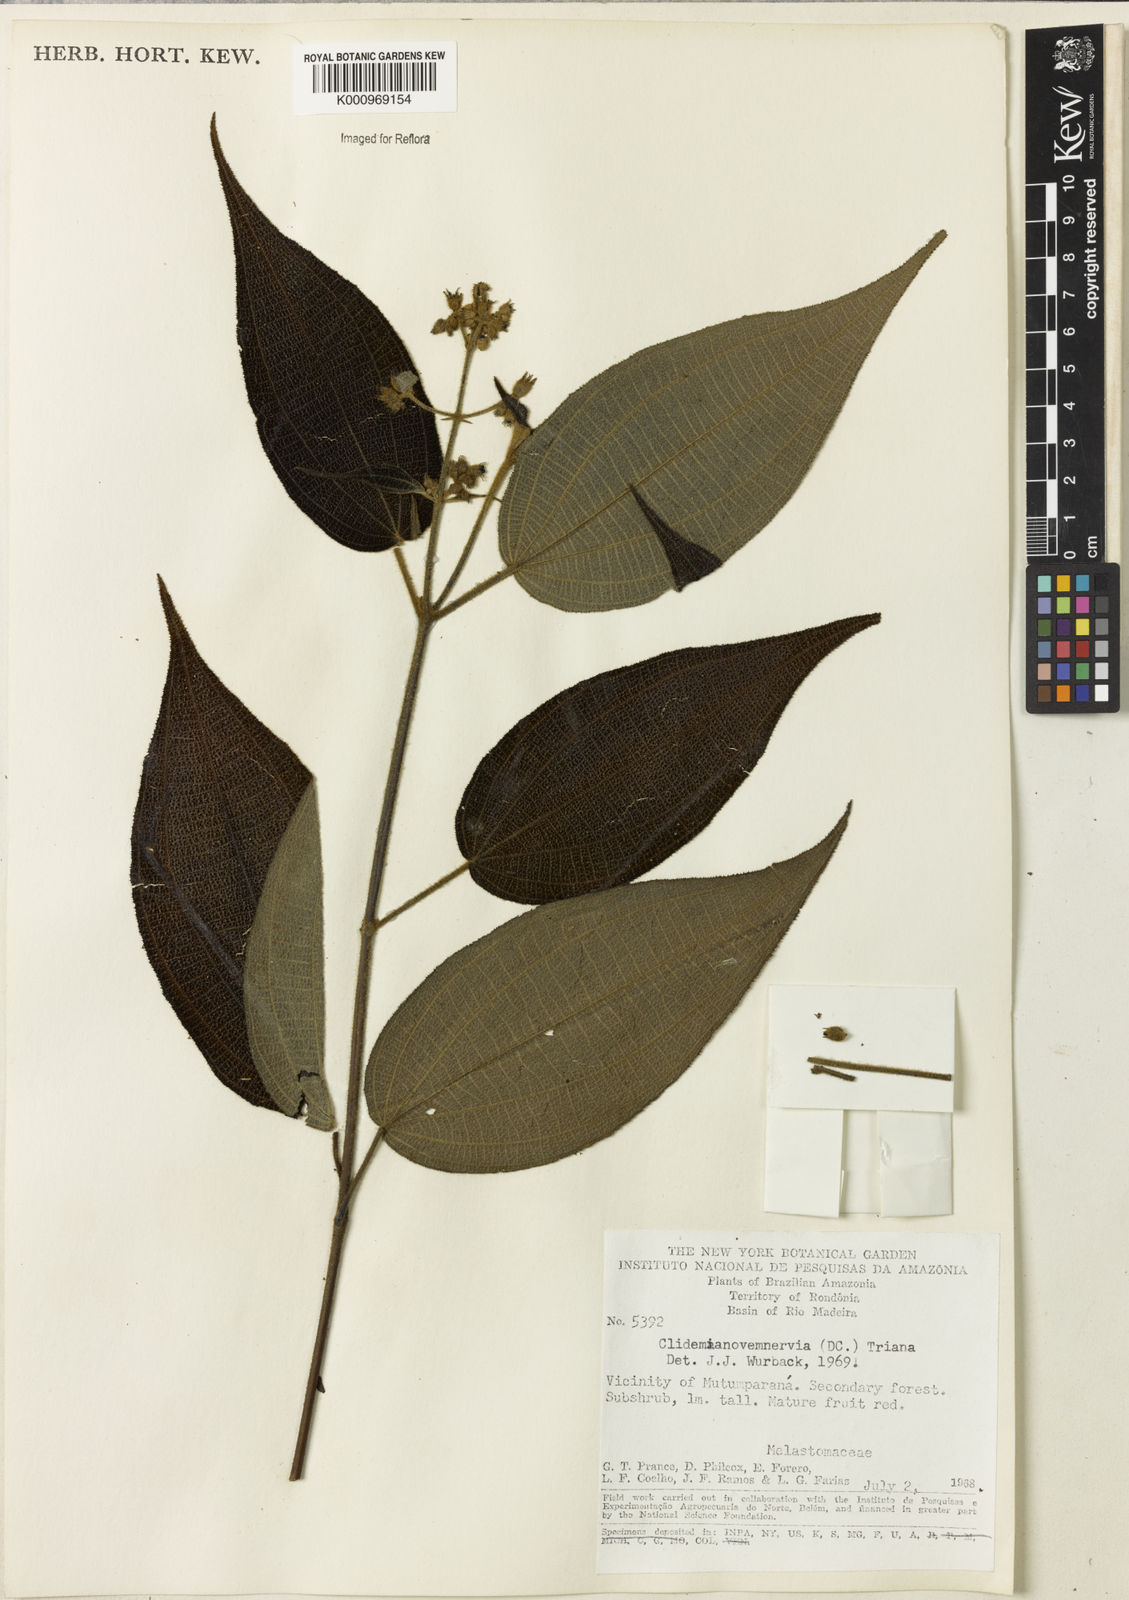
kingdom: Plantae
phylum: Tracheophyta
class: Magnoliopsida
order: Myrtales
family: Melastomataceae
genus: Miconia
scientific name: Miconia bullatifolia
